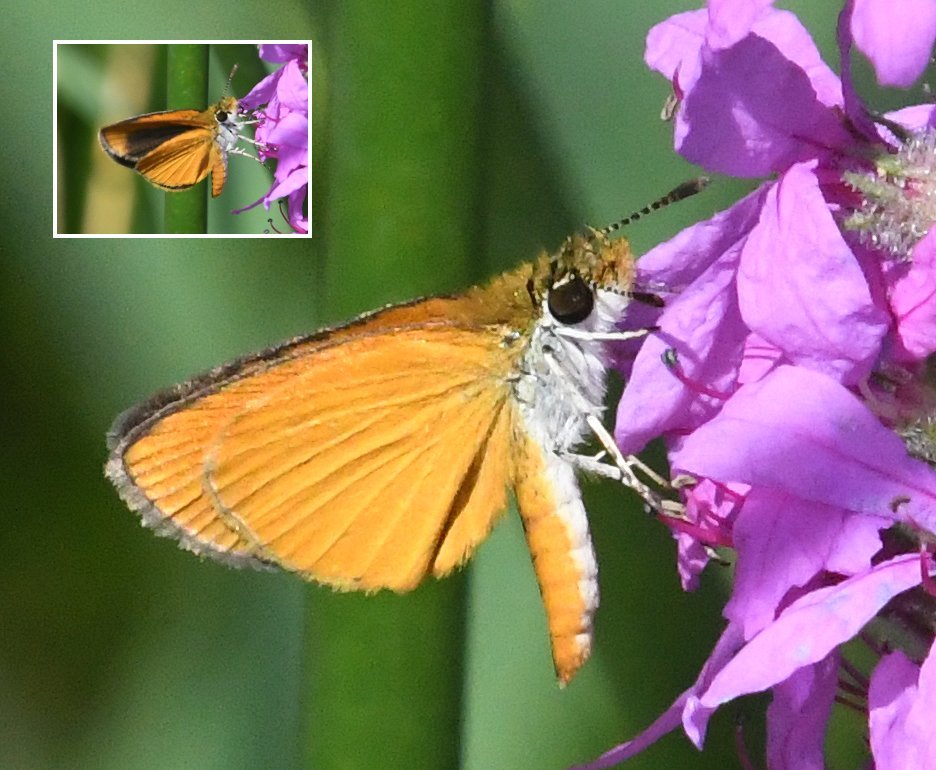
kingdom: Animalia
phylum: Arthropoda
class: Insecta
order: Lepidoptera
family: Hesperiidae
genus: Ancyloxypha
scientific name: Ancyloxypha numitor
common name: Least Skipper
